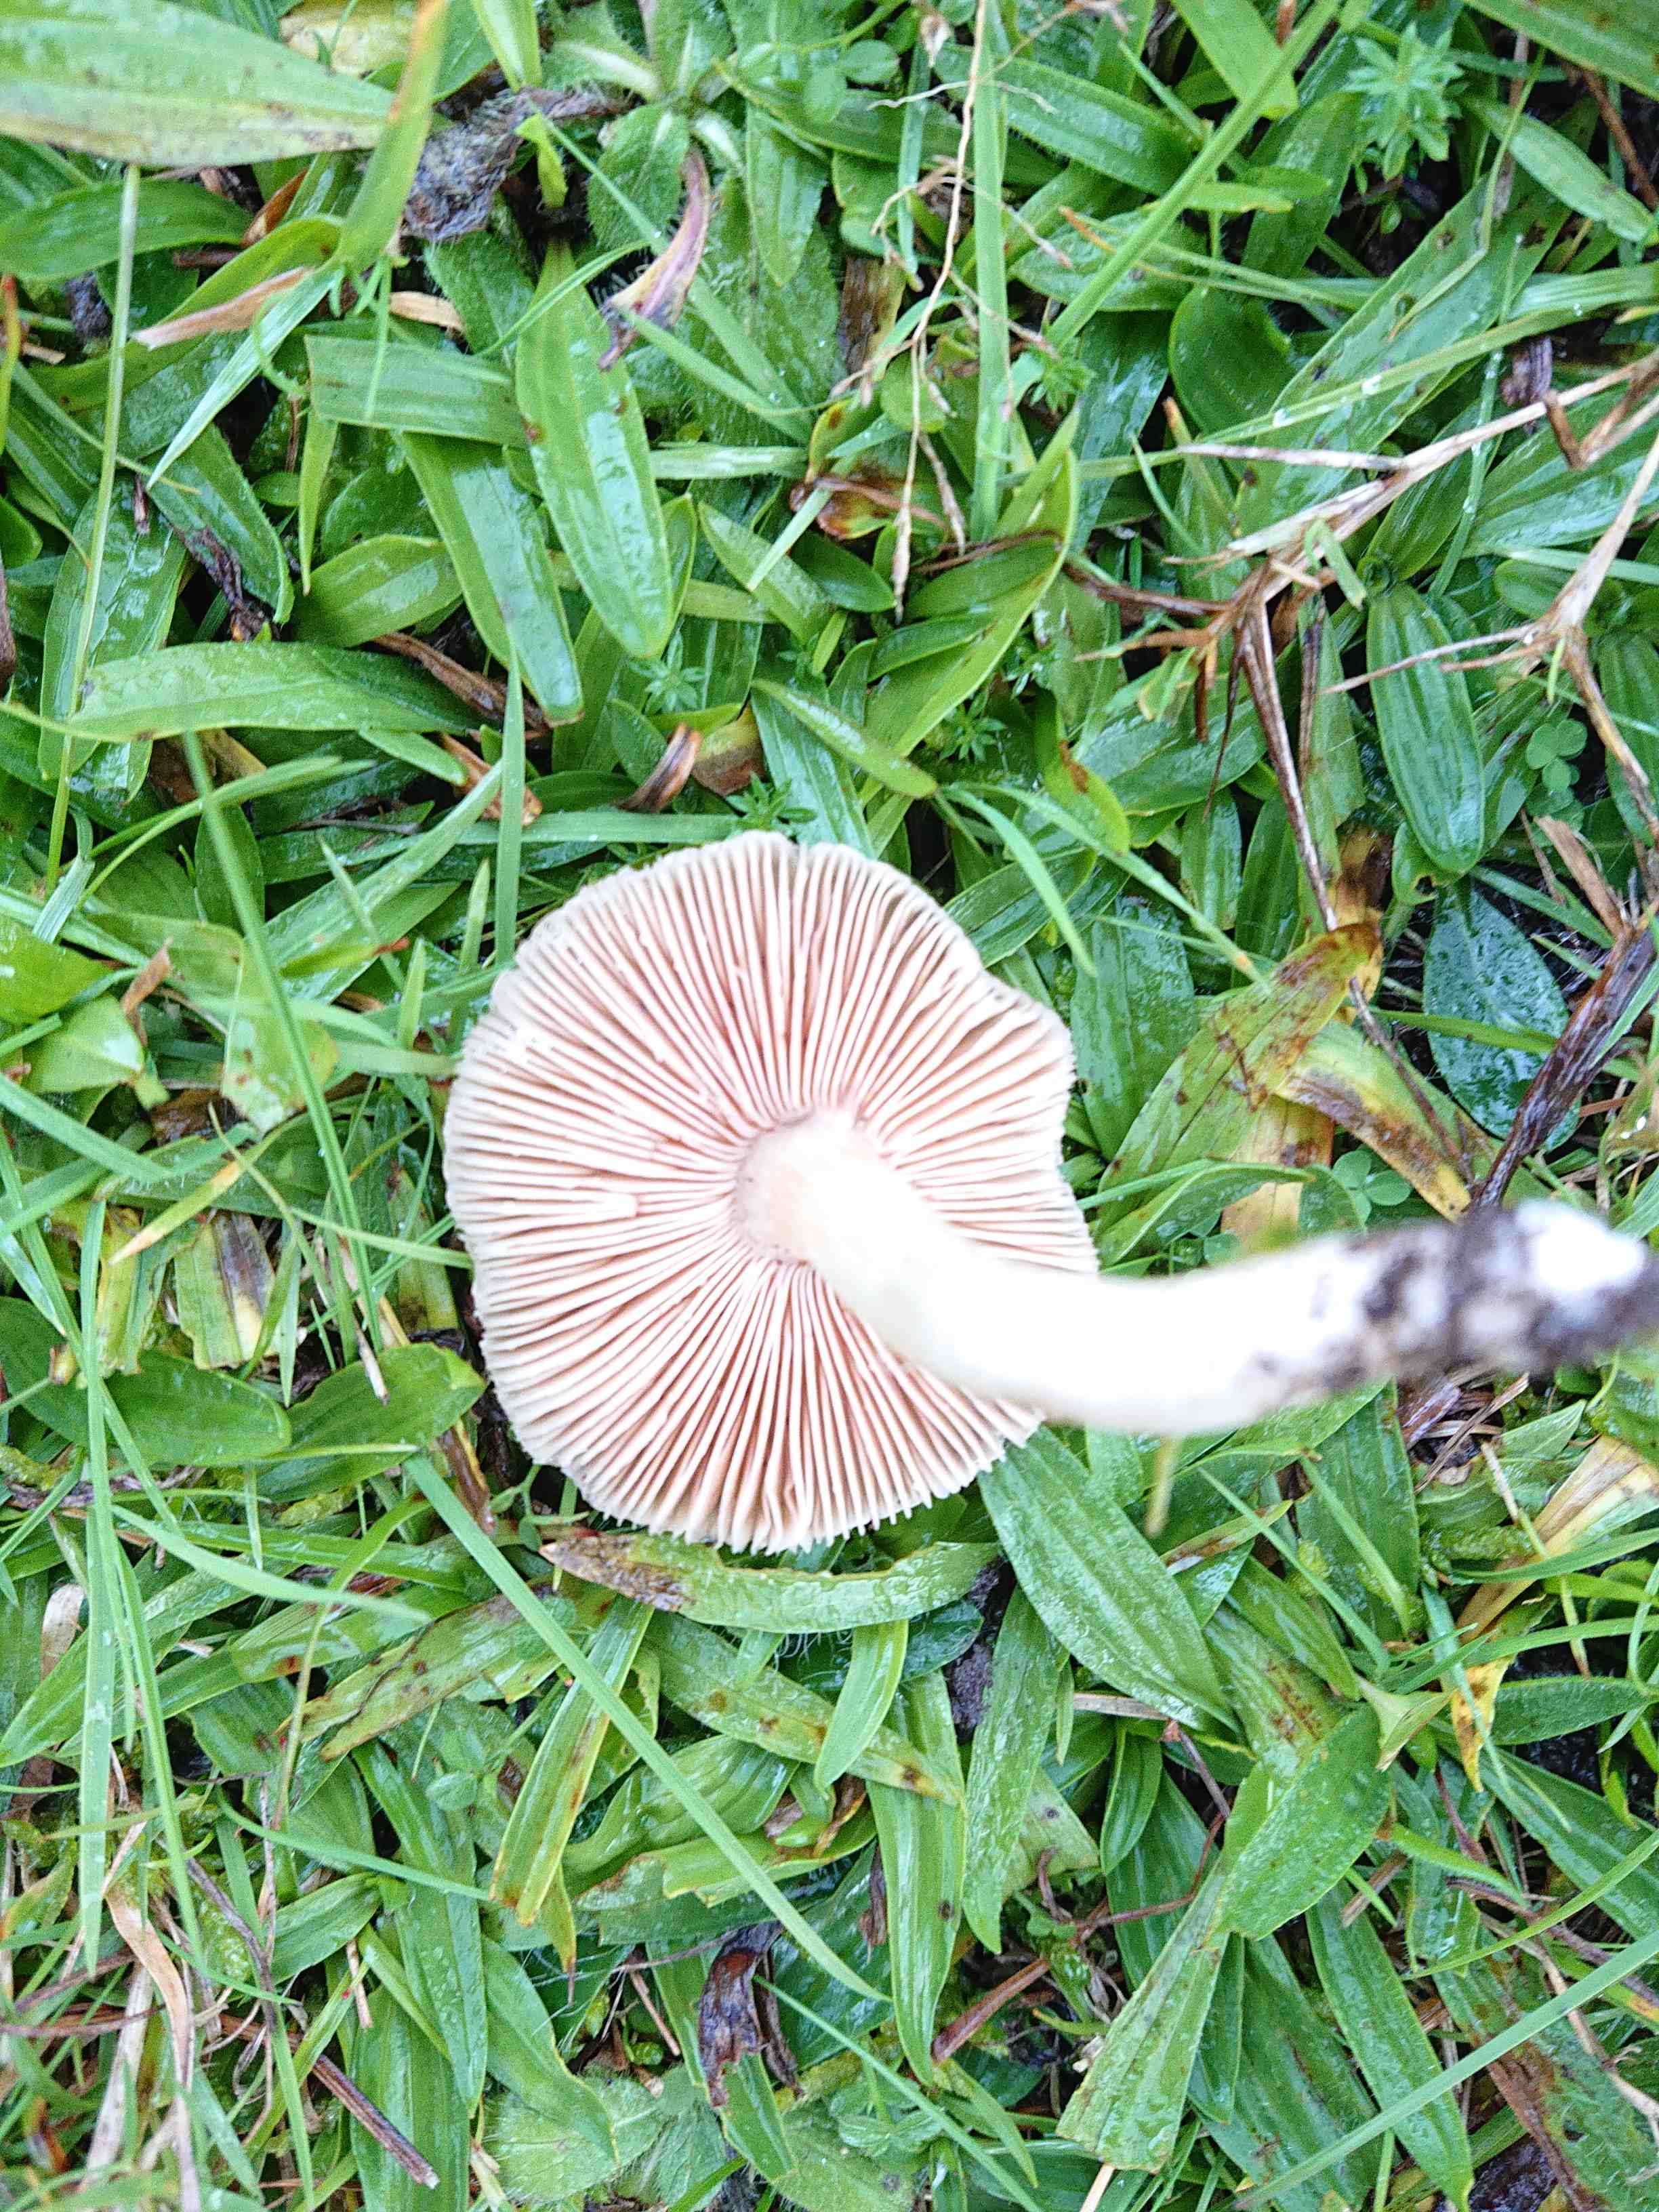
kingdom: Fungi
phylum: Basidiomycota
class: Agaricomycetes
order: Agaricales
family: Entolomataceae
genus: Entoloma
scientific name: Entoloma prunuloides
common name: mel-rødblad
